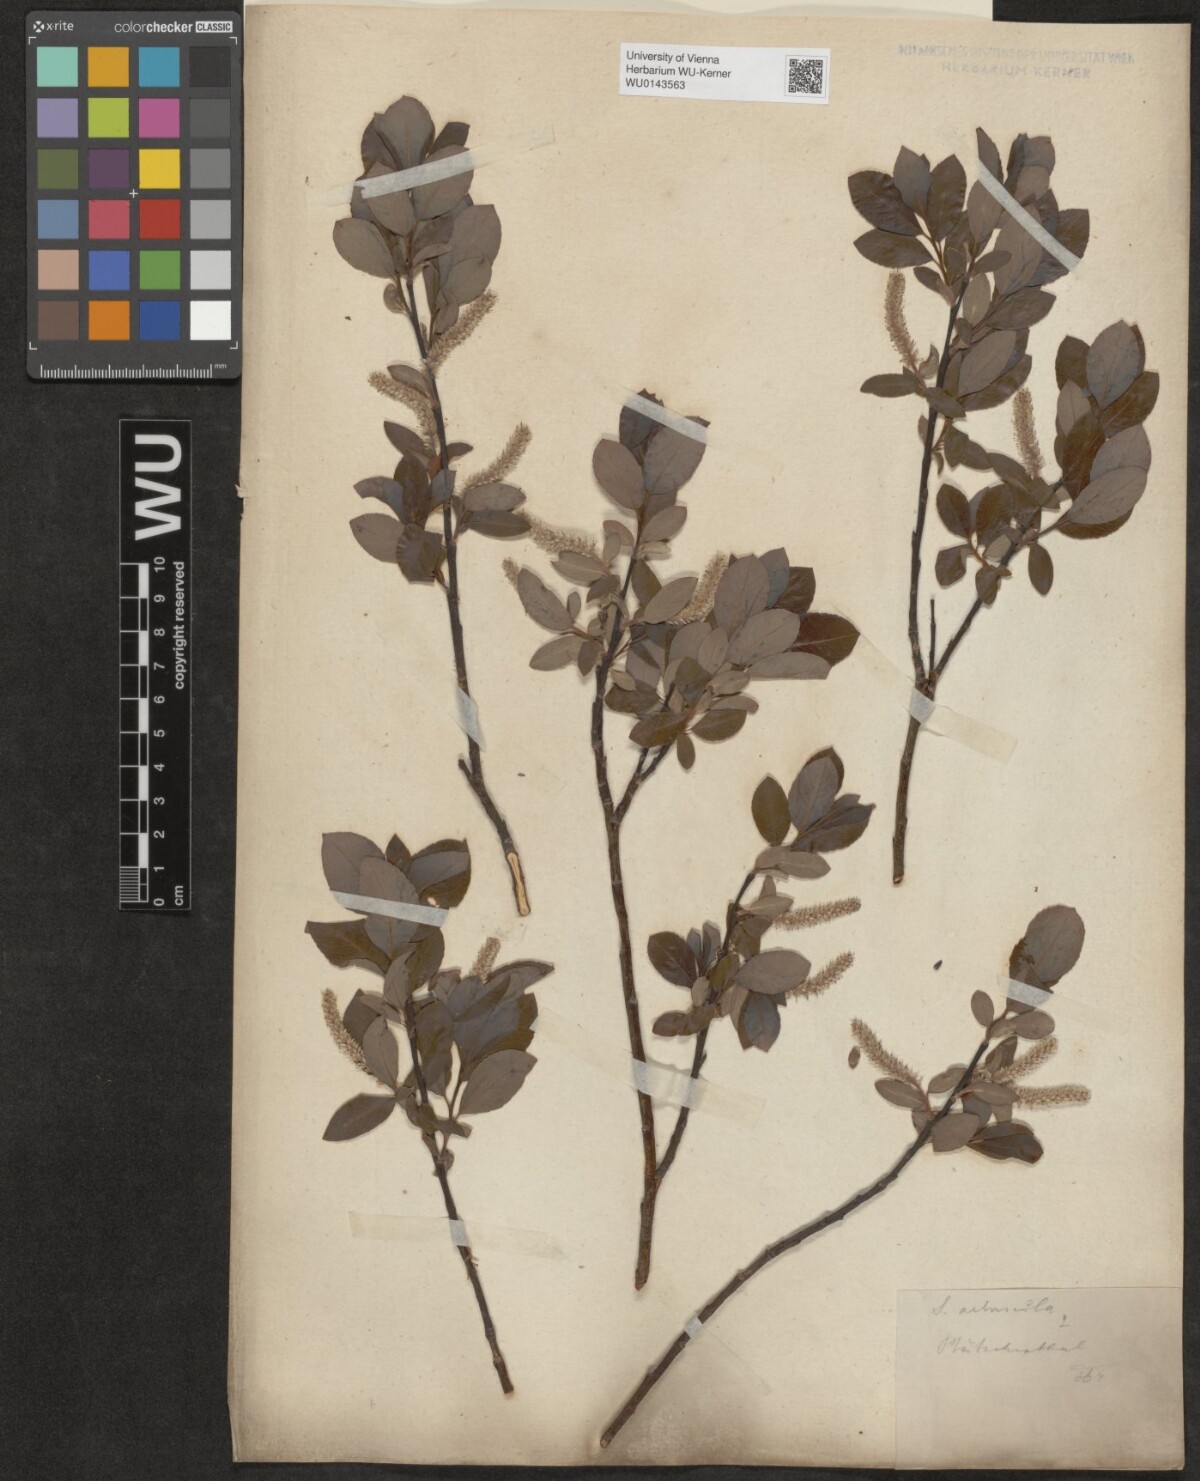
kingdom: Plantae
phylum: Tracheophyta
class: Magnoliopsida
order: Malpighiales
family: Salicaceae
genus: Salix
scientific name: Salix waldsteiniana
